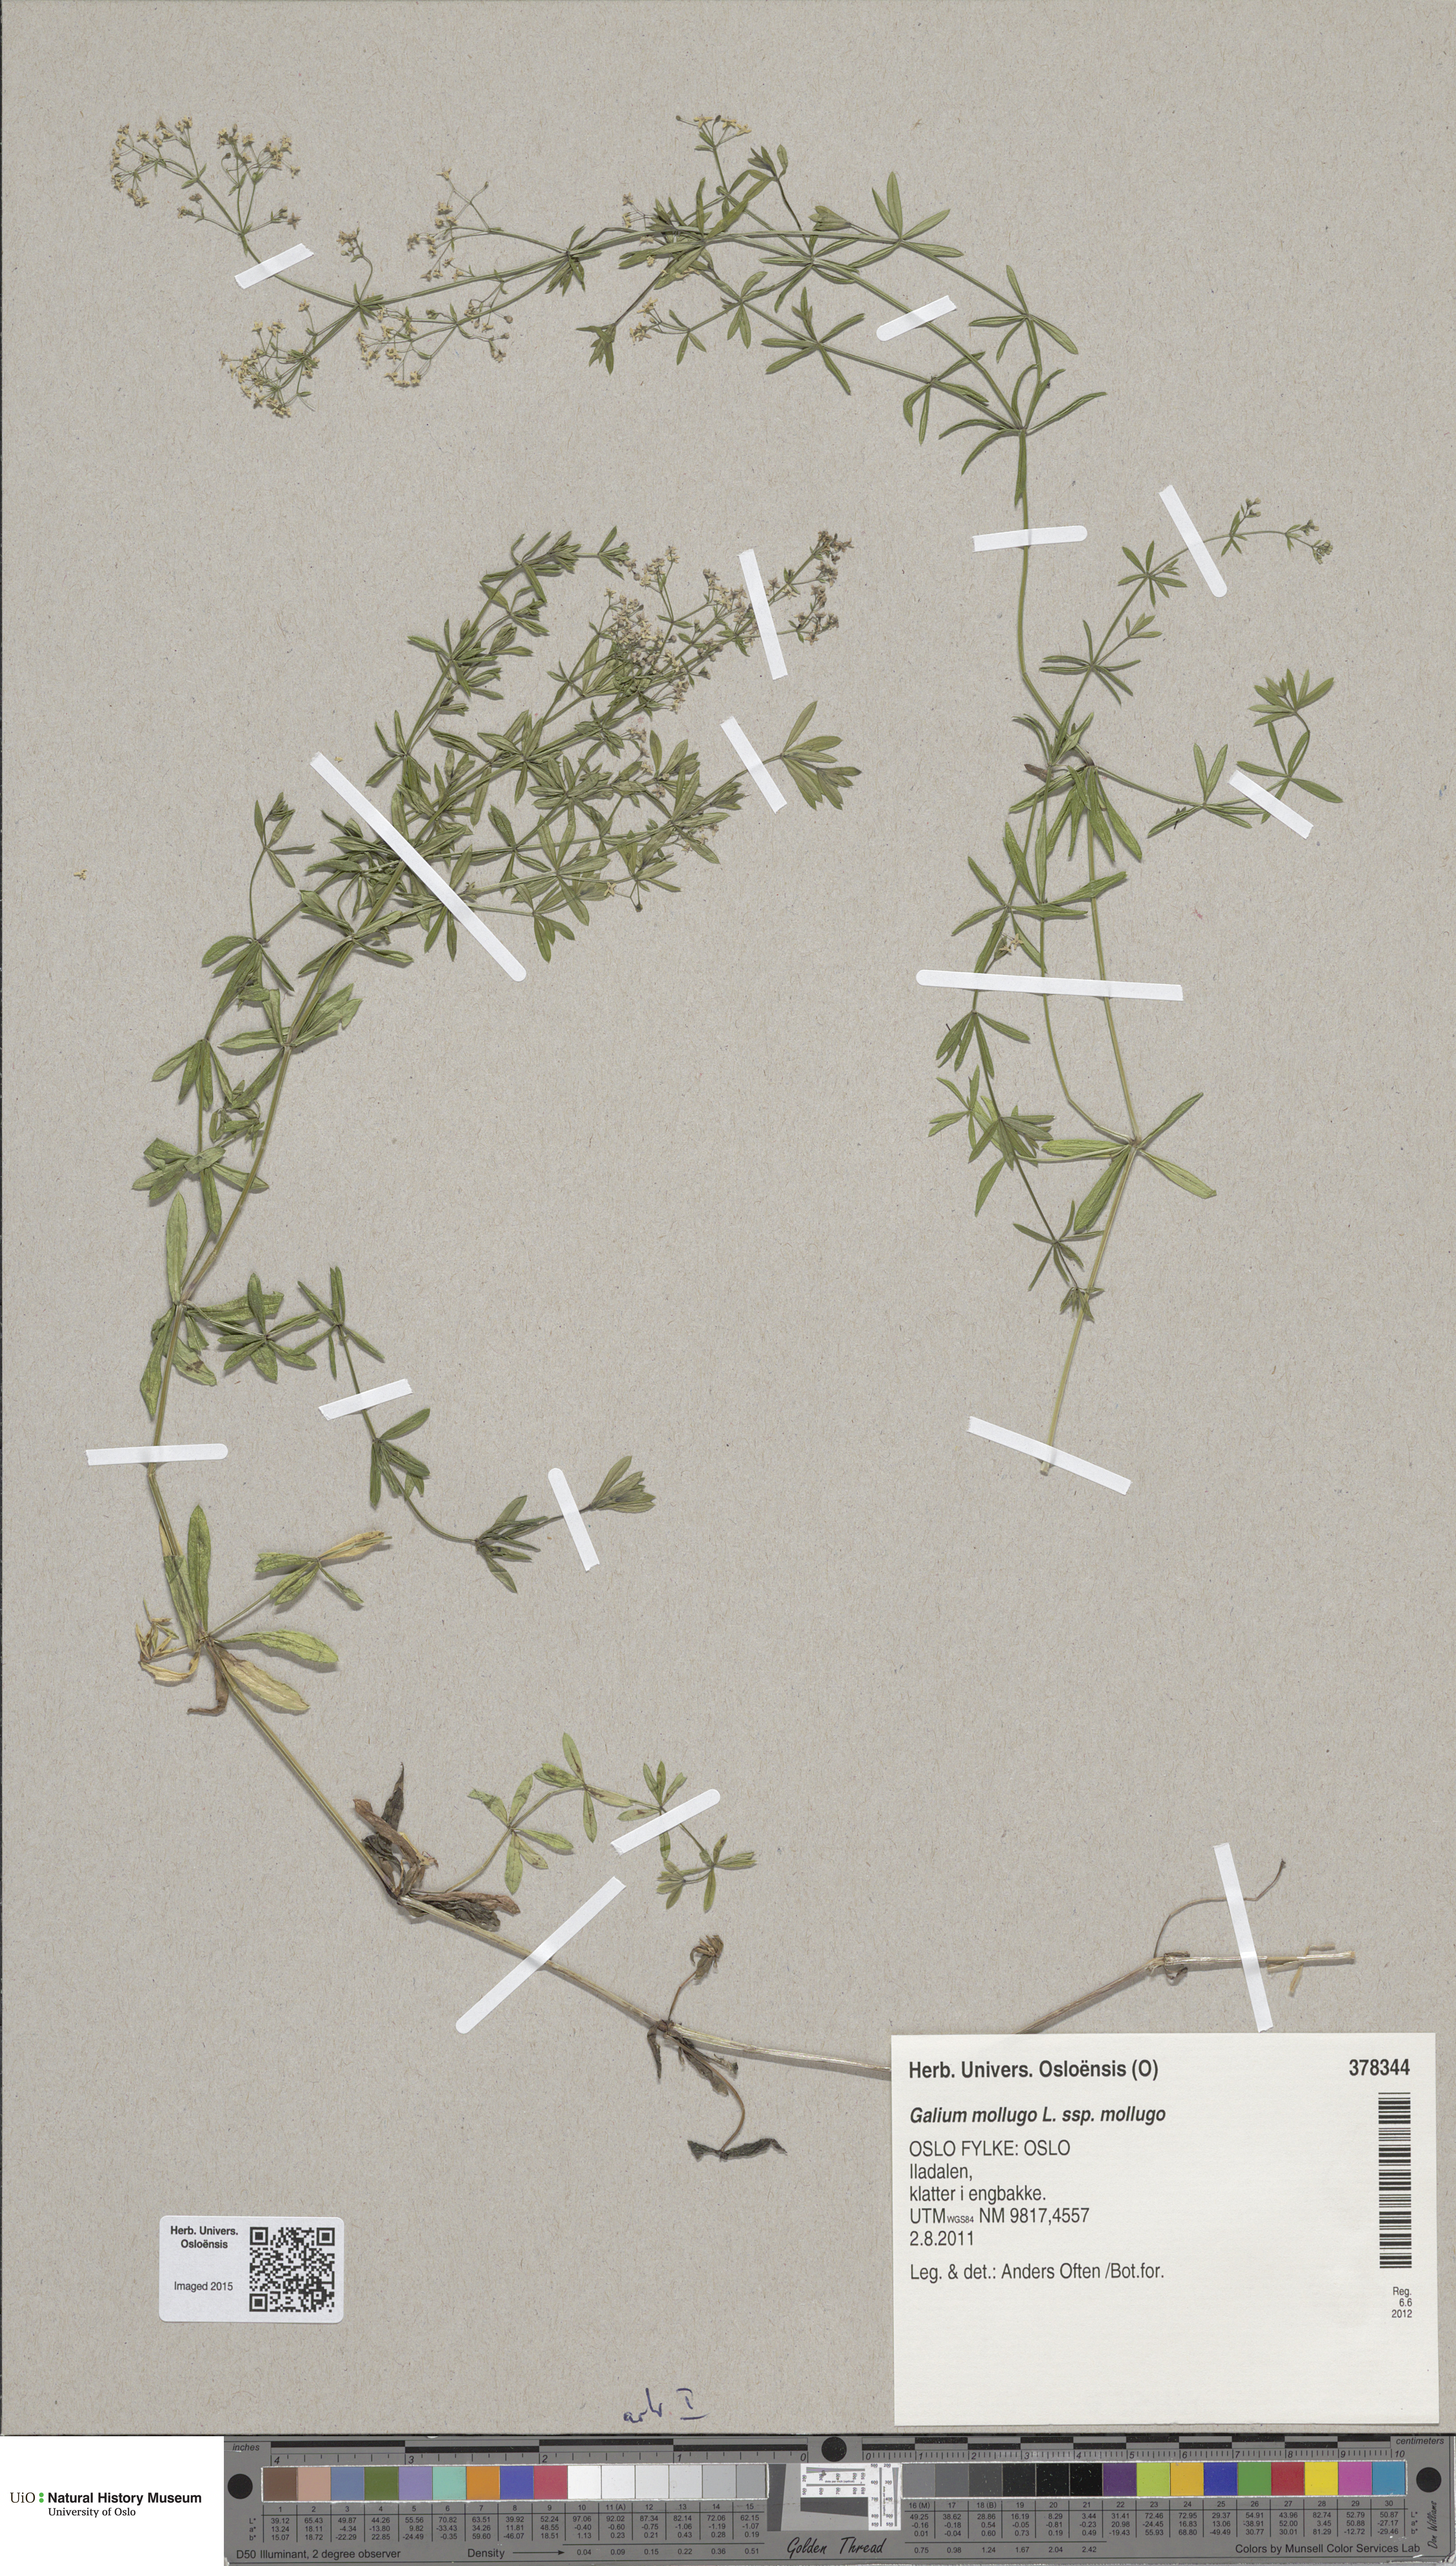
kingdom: Plantae
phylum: Tracheophyta
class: Magnoliopsida
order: Gentianales
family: Rubiaceae
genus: Galium
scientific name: Galium mollugo
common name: Hedge bedstraw
